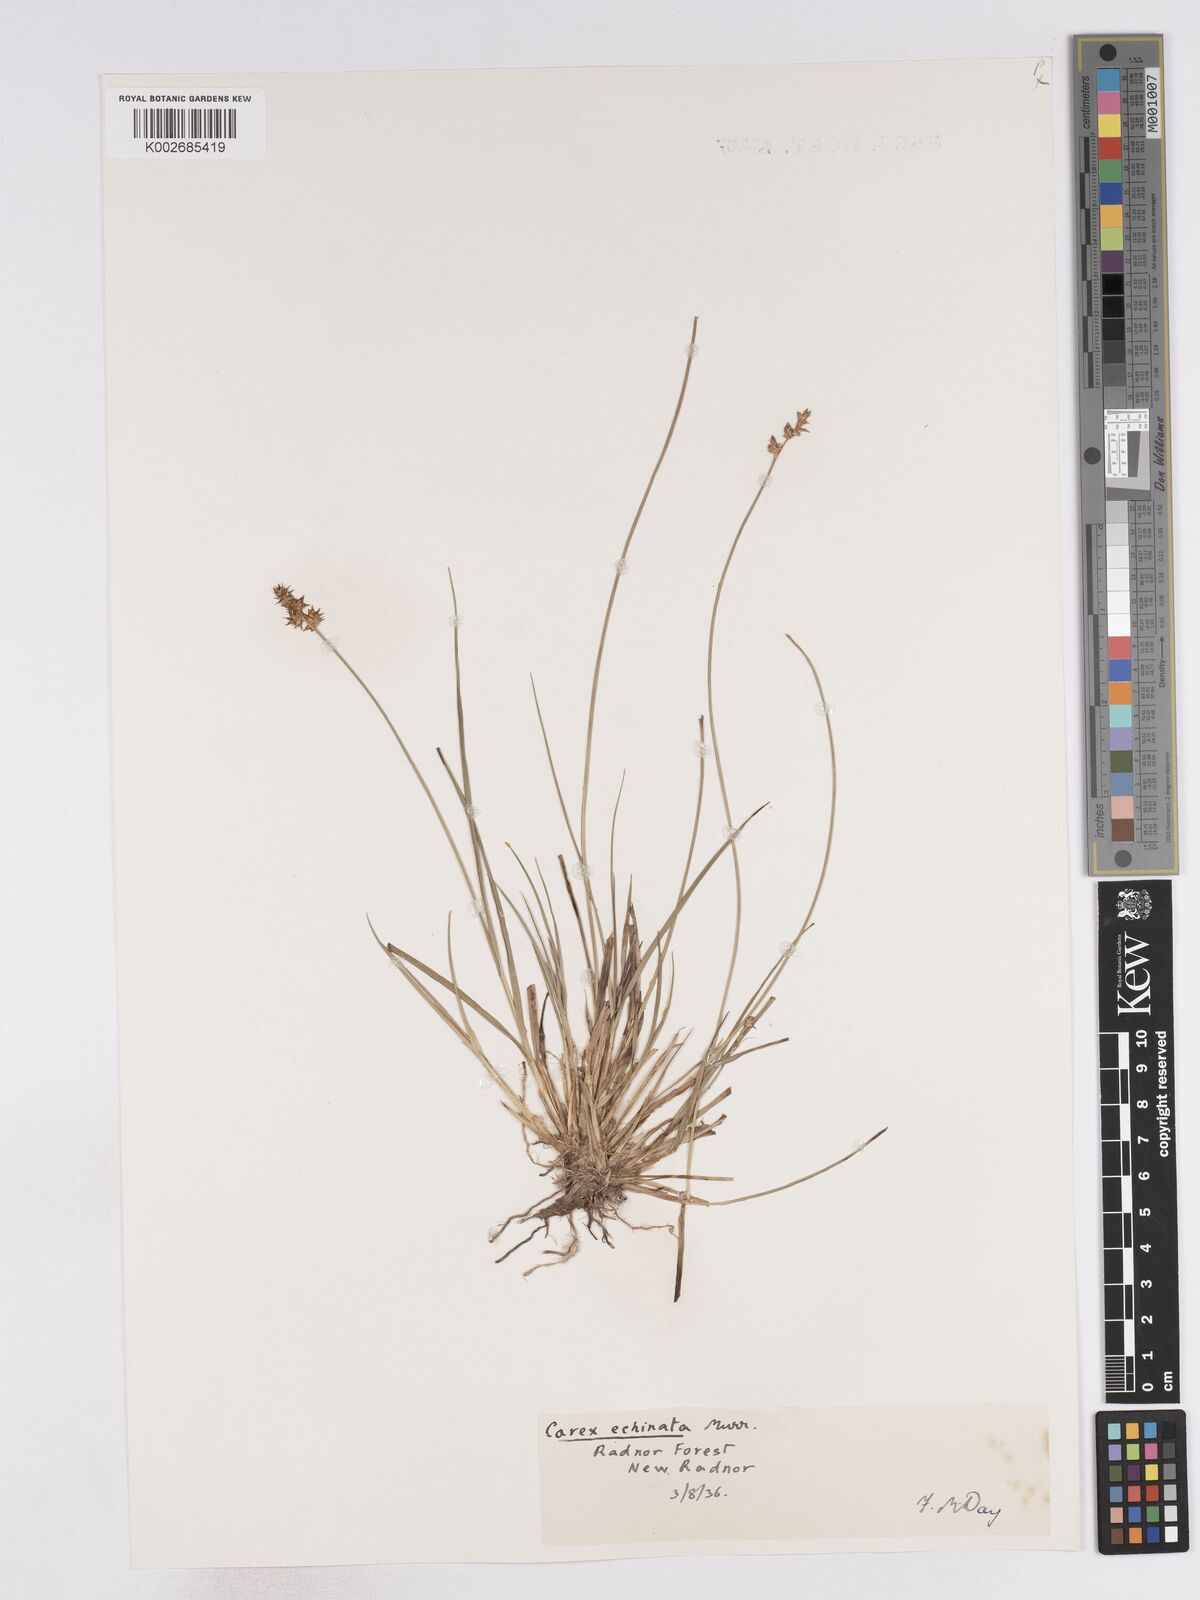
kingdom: Plantae
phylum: Tracheophyta
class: Liliopsida
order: Poales
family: Cyperaceae
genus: Carex
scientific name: Carex echinata
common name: Star sedge
